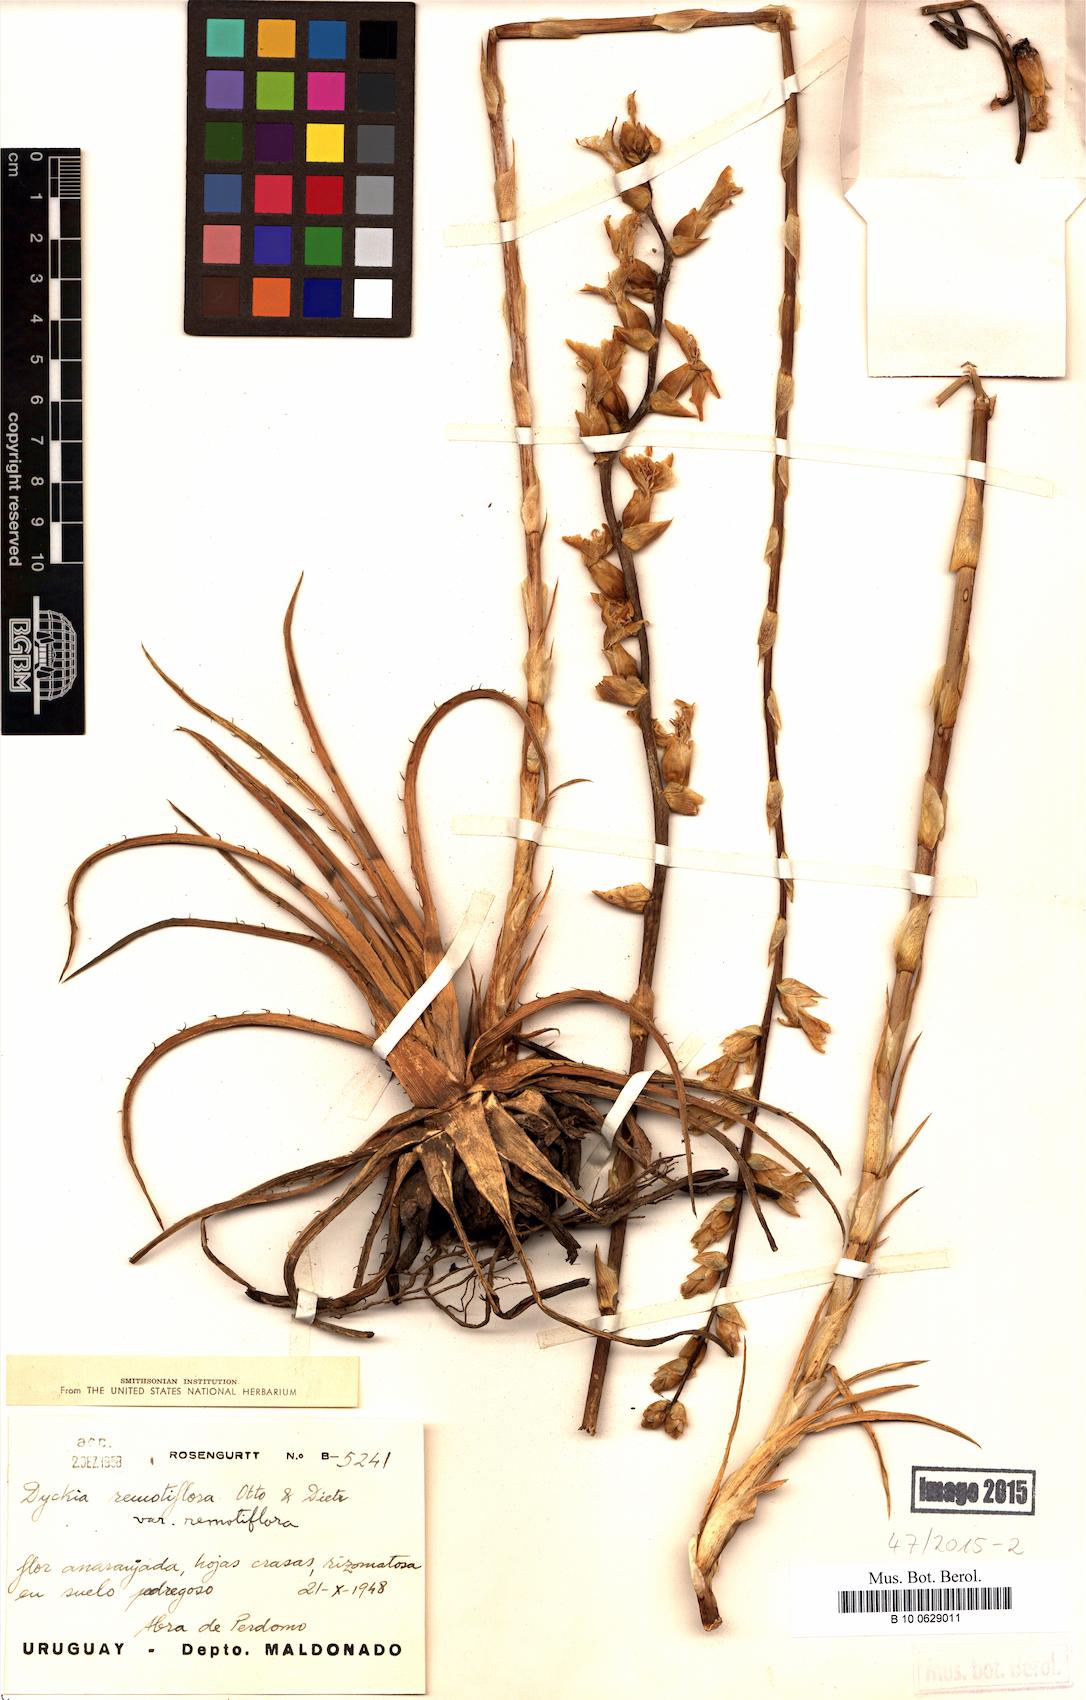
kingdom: Plantae
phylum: Tracheophyta
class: Liliopsida
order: Poales
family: Bromeliaceae
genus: Dyckia
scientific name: Dyckia remotiflora
